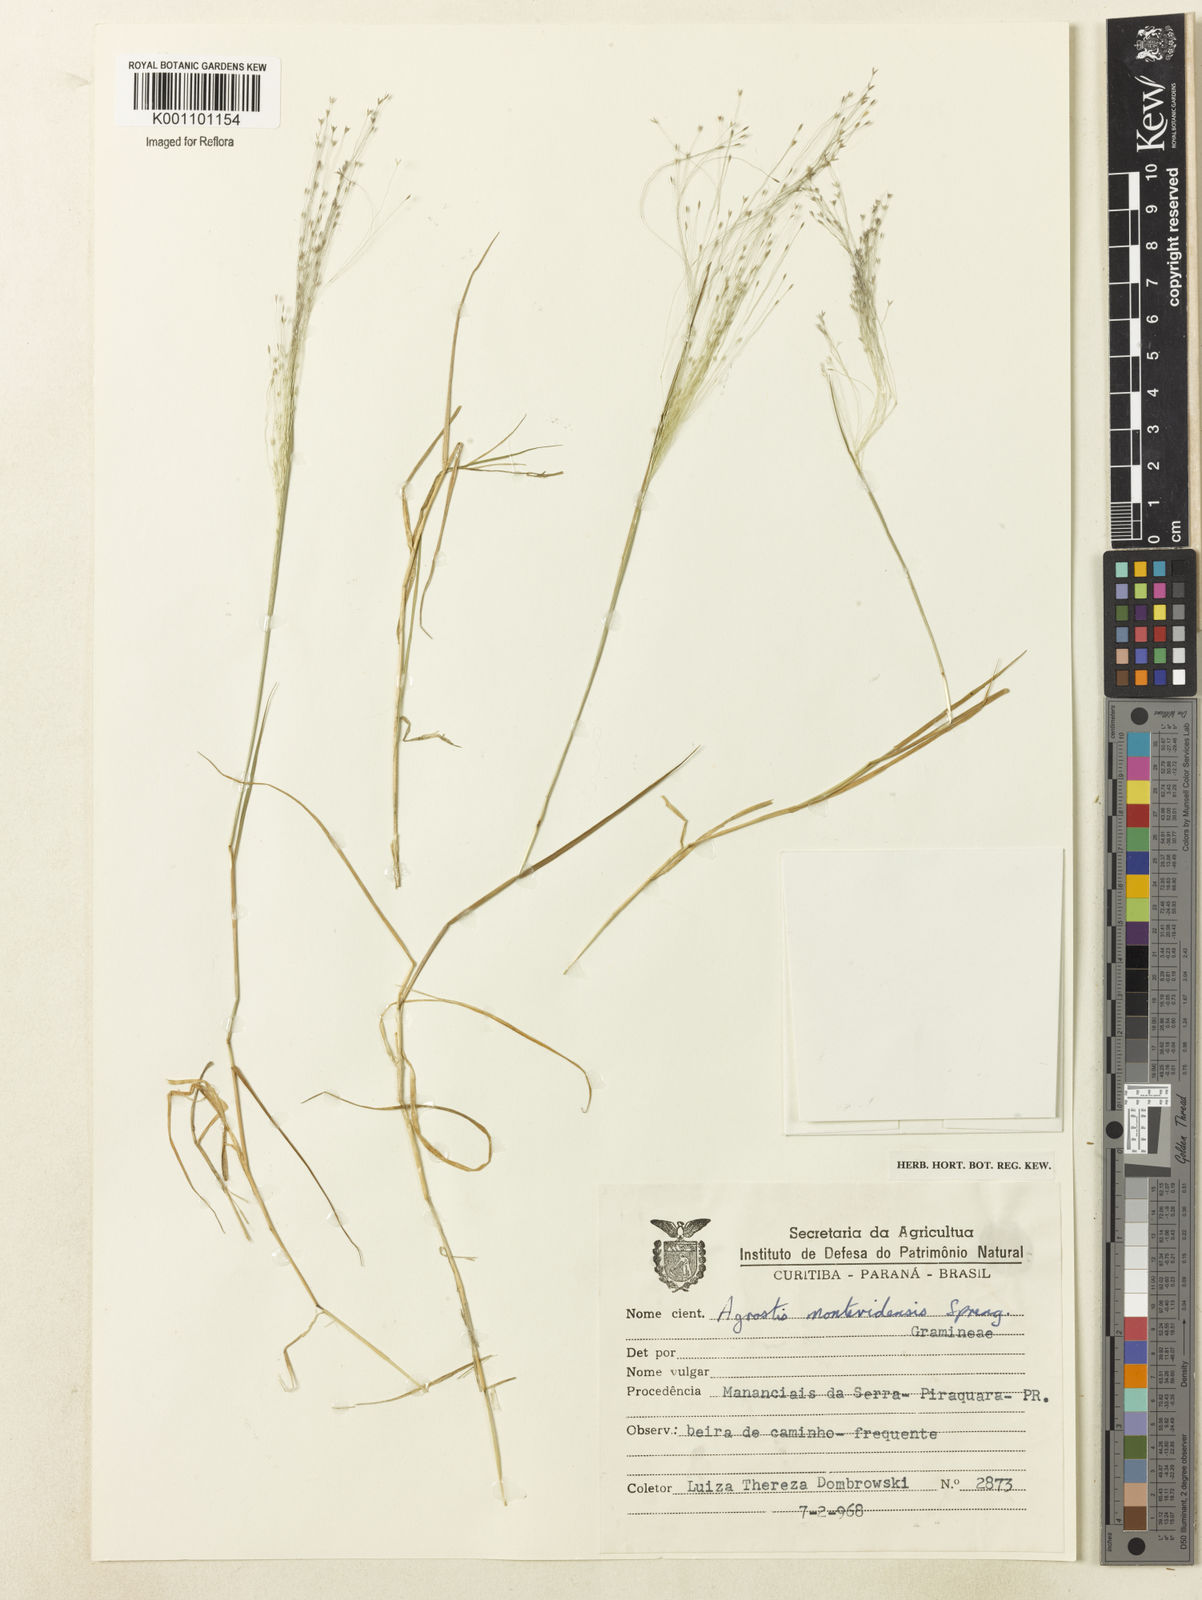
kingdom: Plantae
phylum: Tracheophyta
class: Liliopsida
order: Poales
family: Poaceae
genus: Agrostis
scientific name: Agrostis montevidensis
